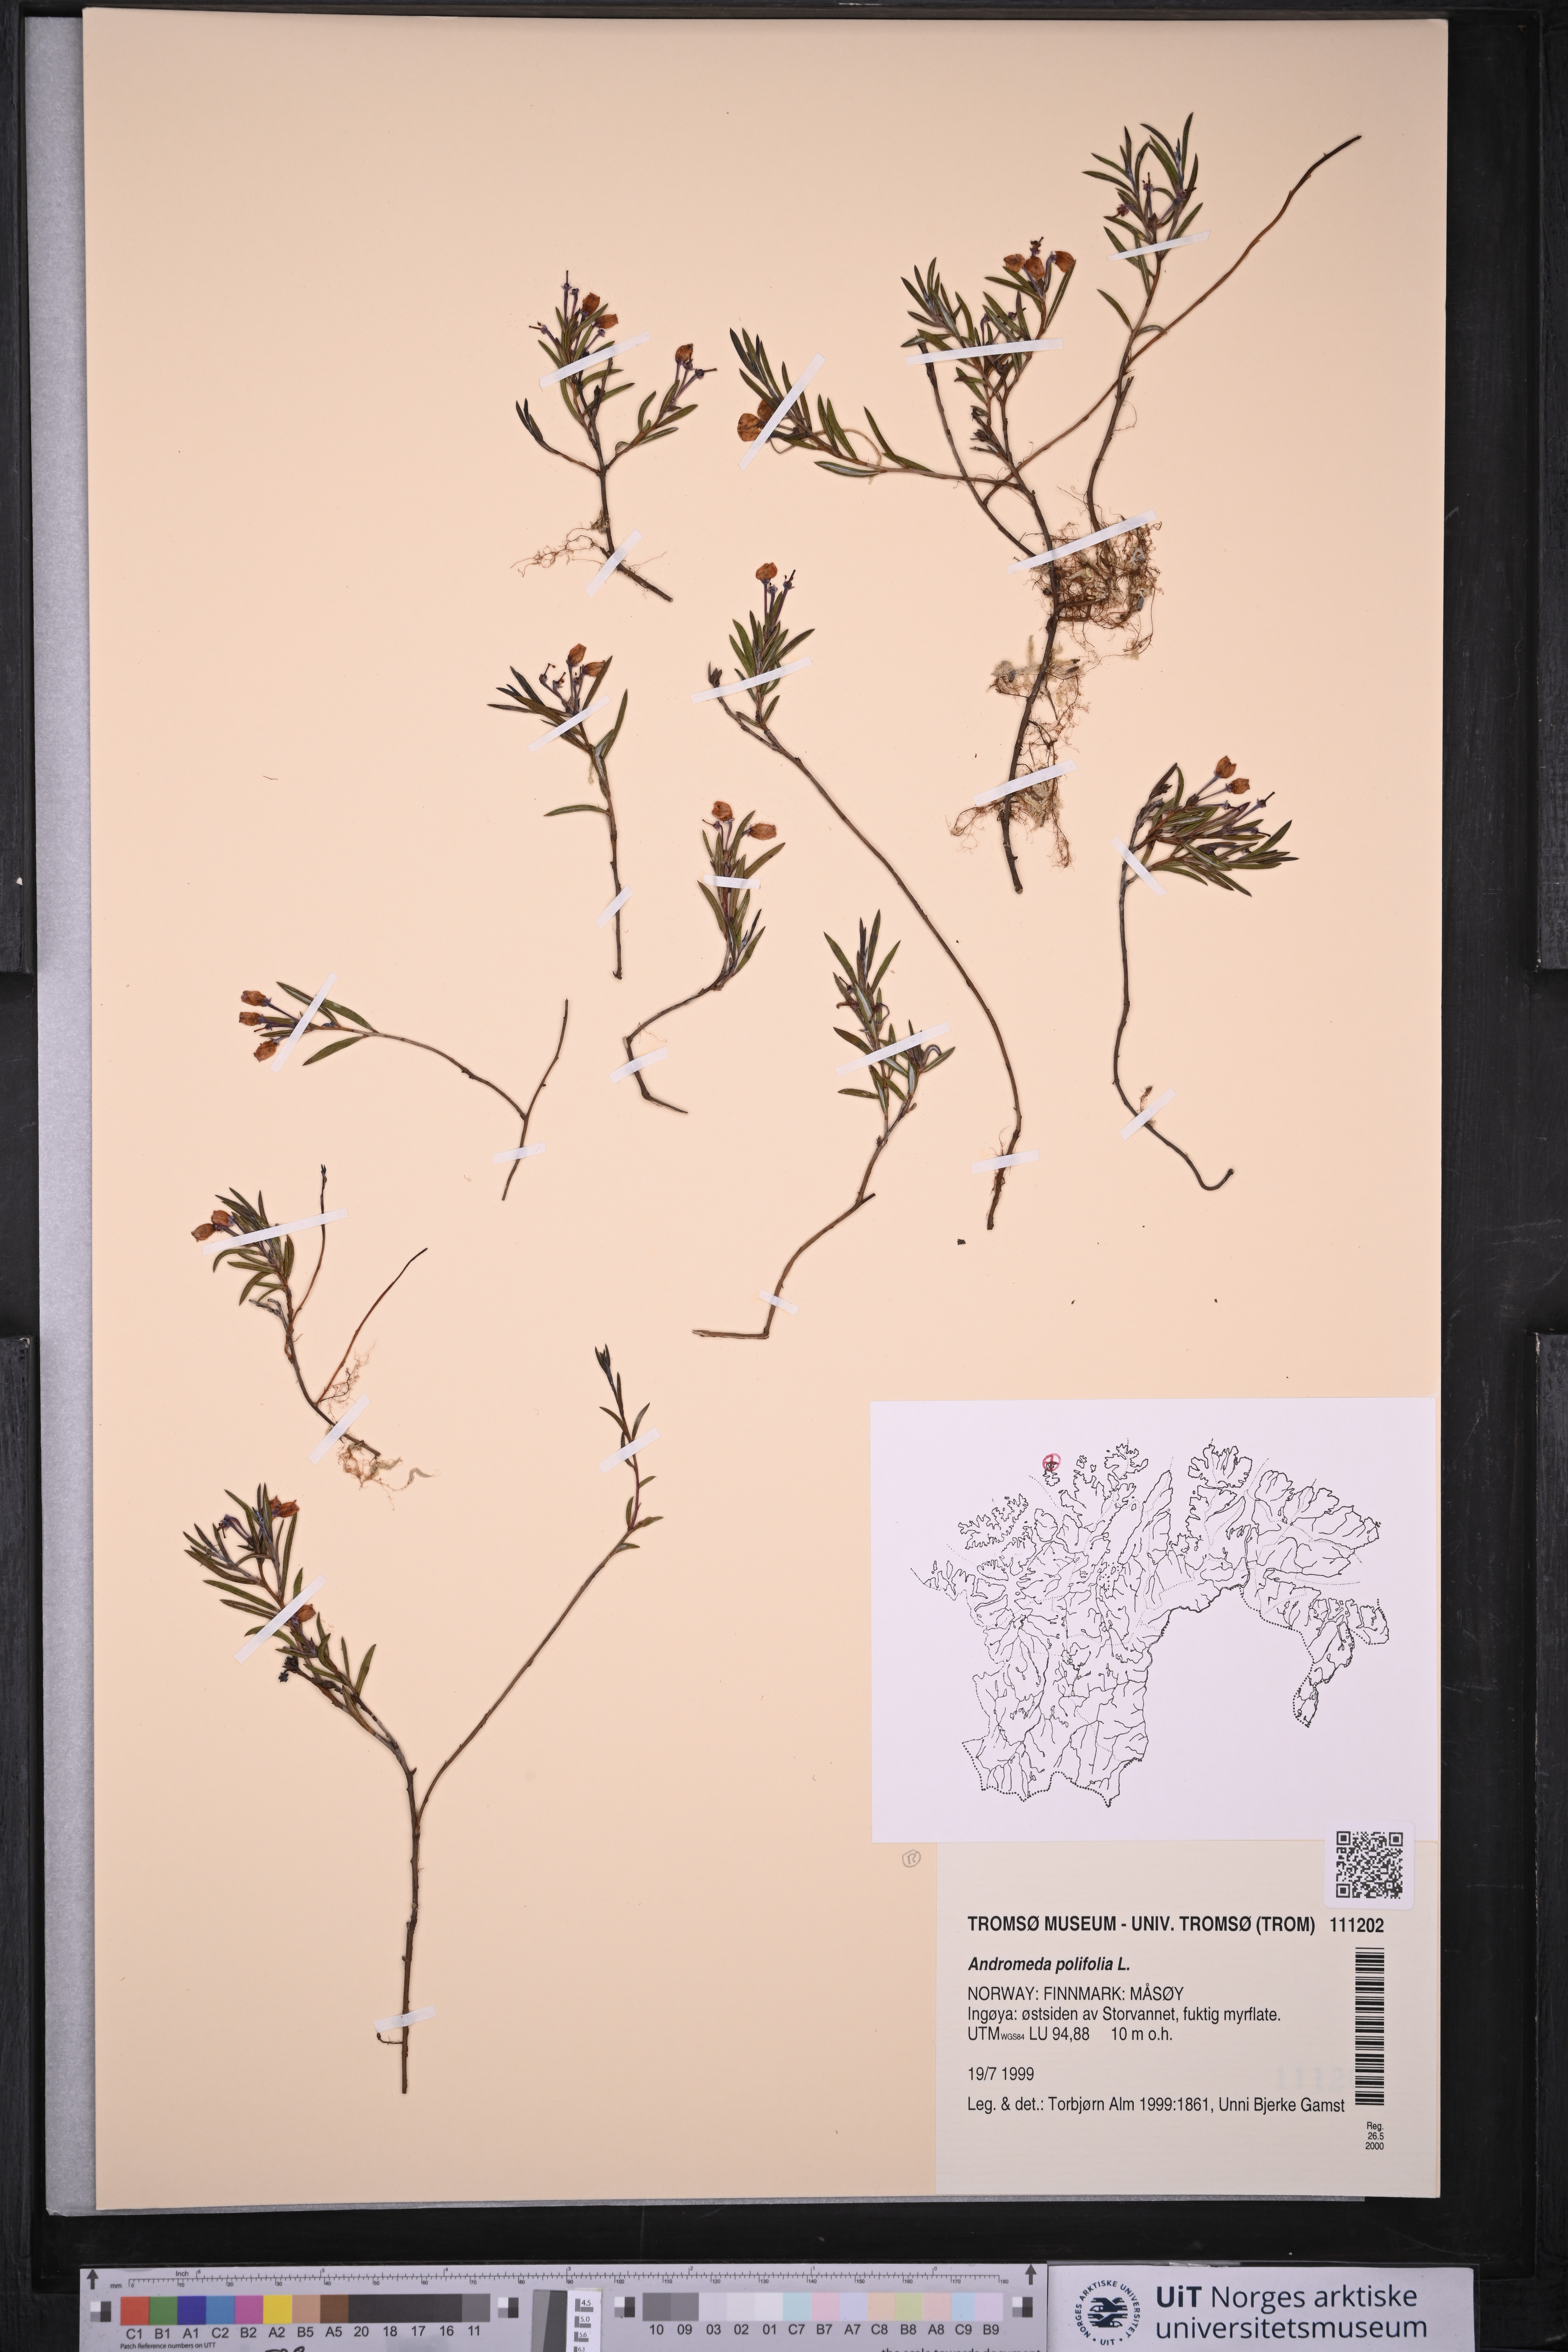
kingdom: Plantae
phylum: Tracheophyta
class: Magnoliopsida
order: Ericales
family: Ericaceae
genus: Andromeda
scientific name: Andromeda polifolia
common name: Bog-rosemary
